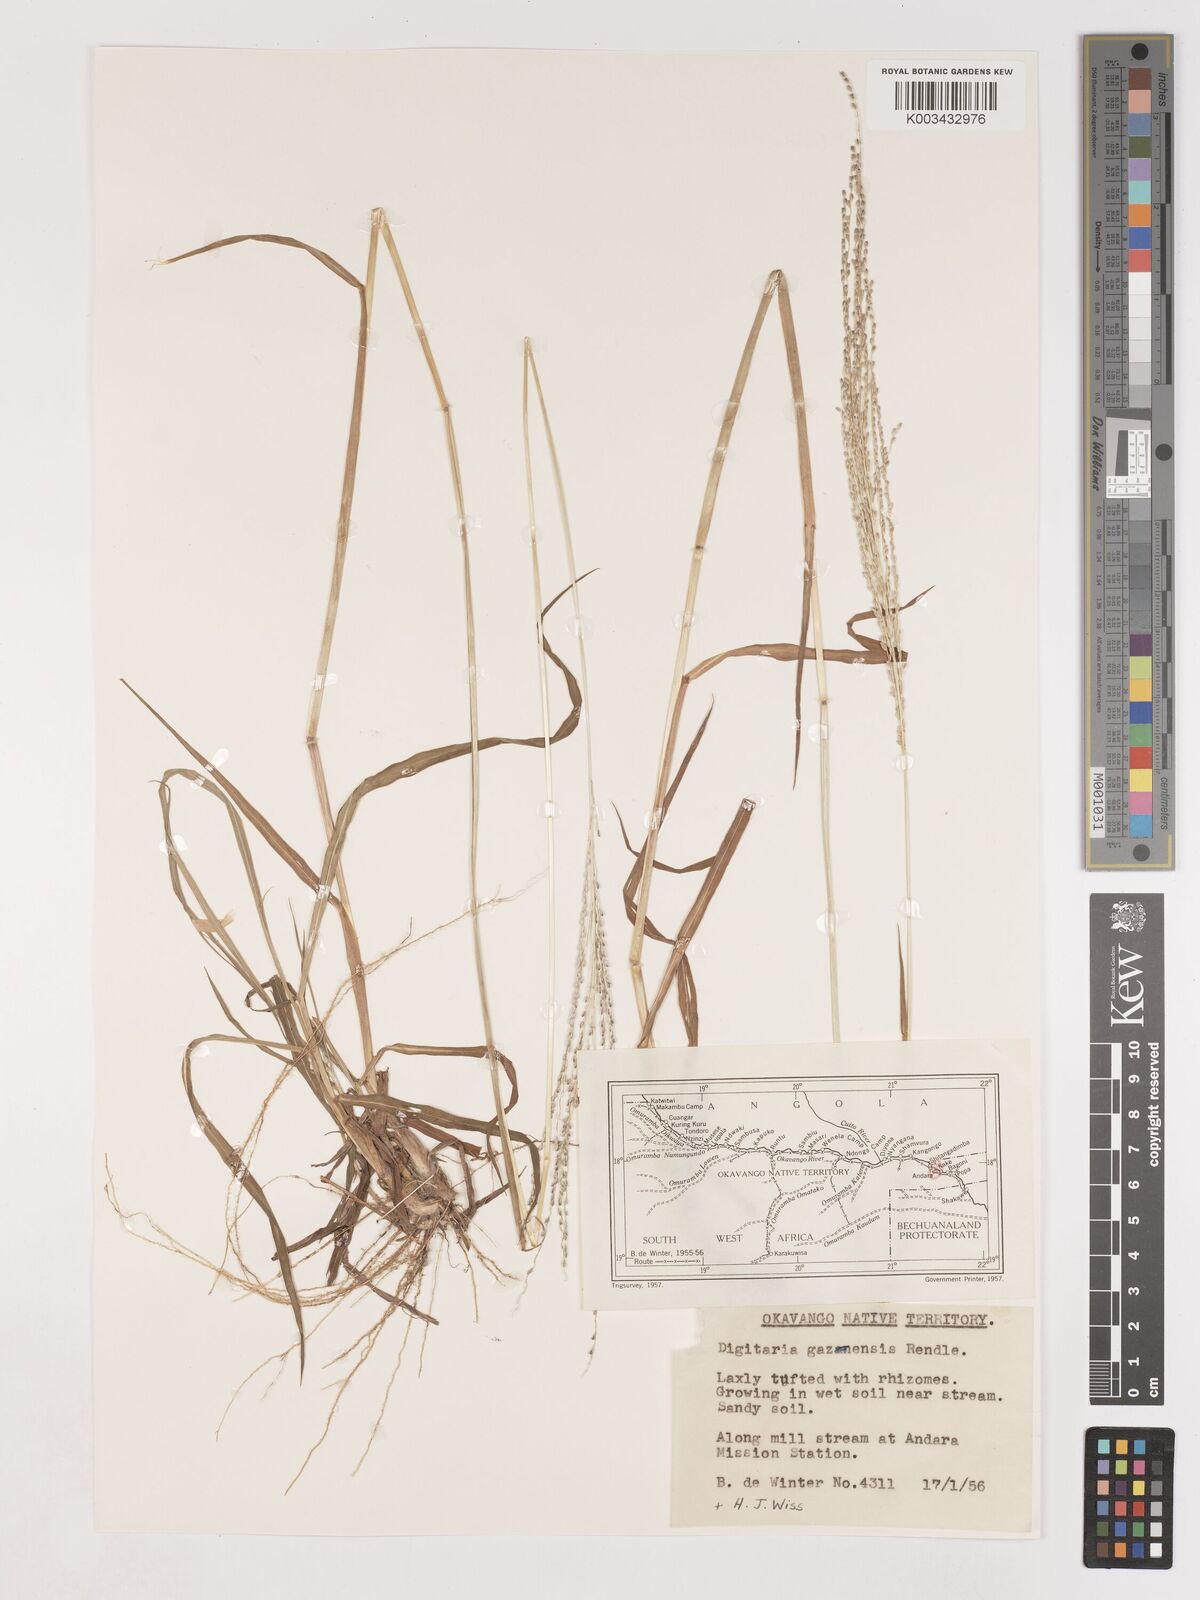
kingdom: Plantae
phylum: Tracheophyta
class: Liliopsida
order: Poales
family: Poaceae
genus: Digitaria
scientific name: Digitaria gazensis
